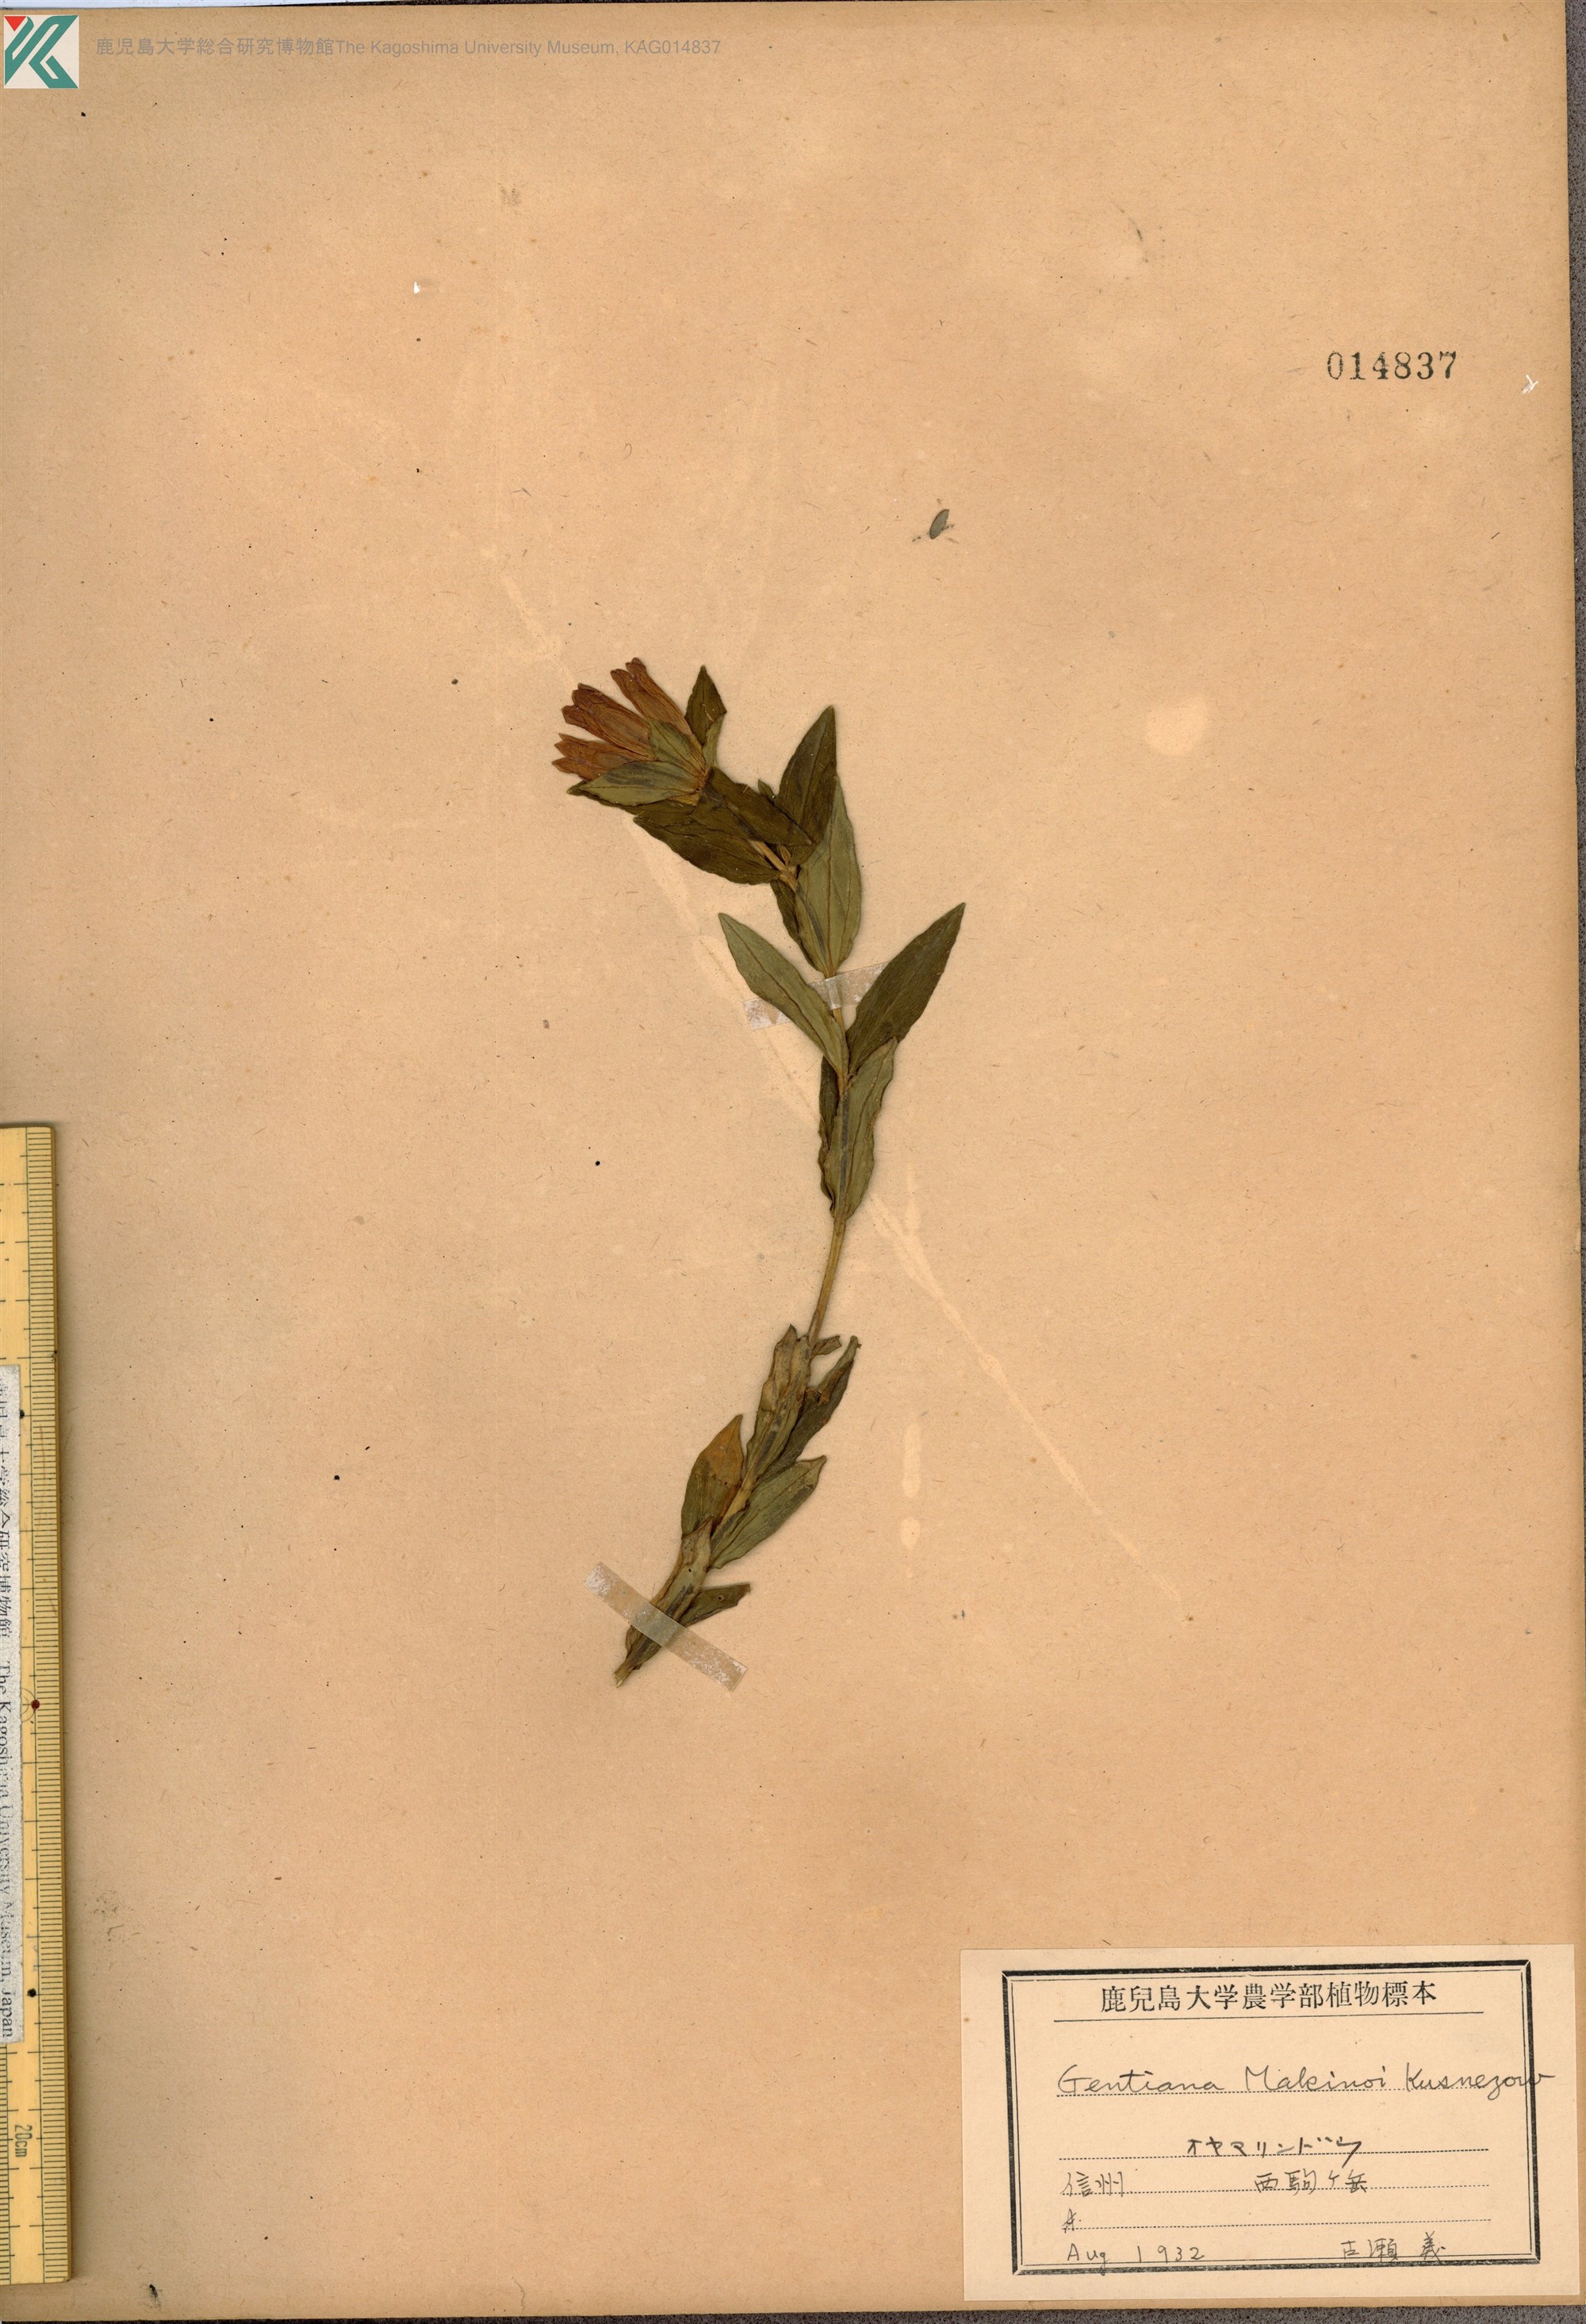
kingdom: Plantae
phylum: Tracheophyta
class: Magnoliopsida
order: Gentianales
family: Gentianaceae
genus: Gentiana
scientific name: Gentiana makinoi
